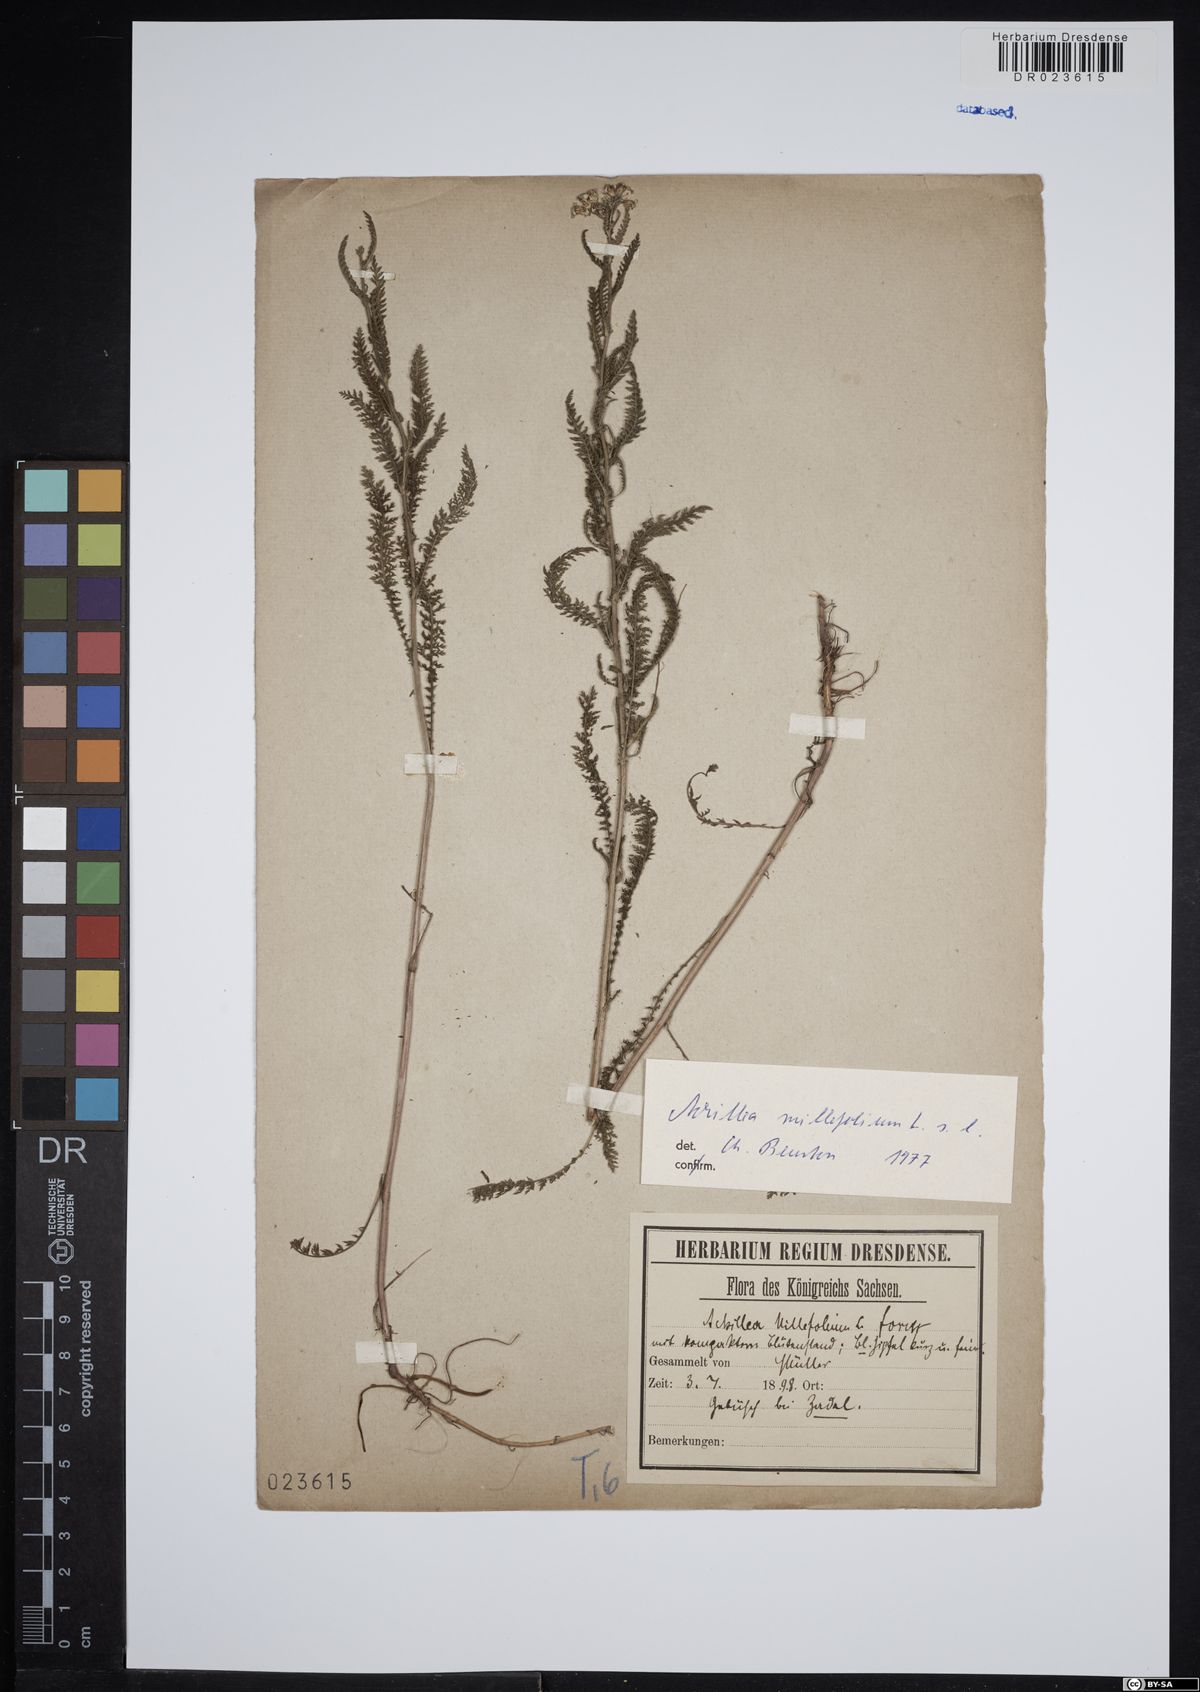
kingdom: Plantae
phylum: Tracheophyta
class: Magnoliopsida
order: Asterales
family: Asteraceae
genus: Achillea
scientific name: Achillea millefolium
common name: Yarrow
